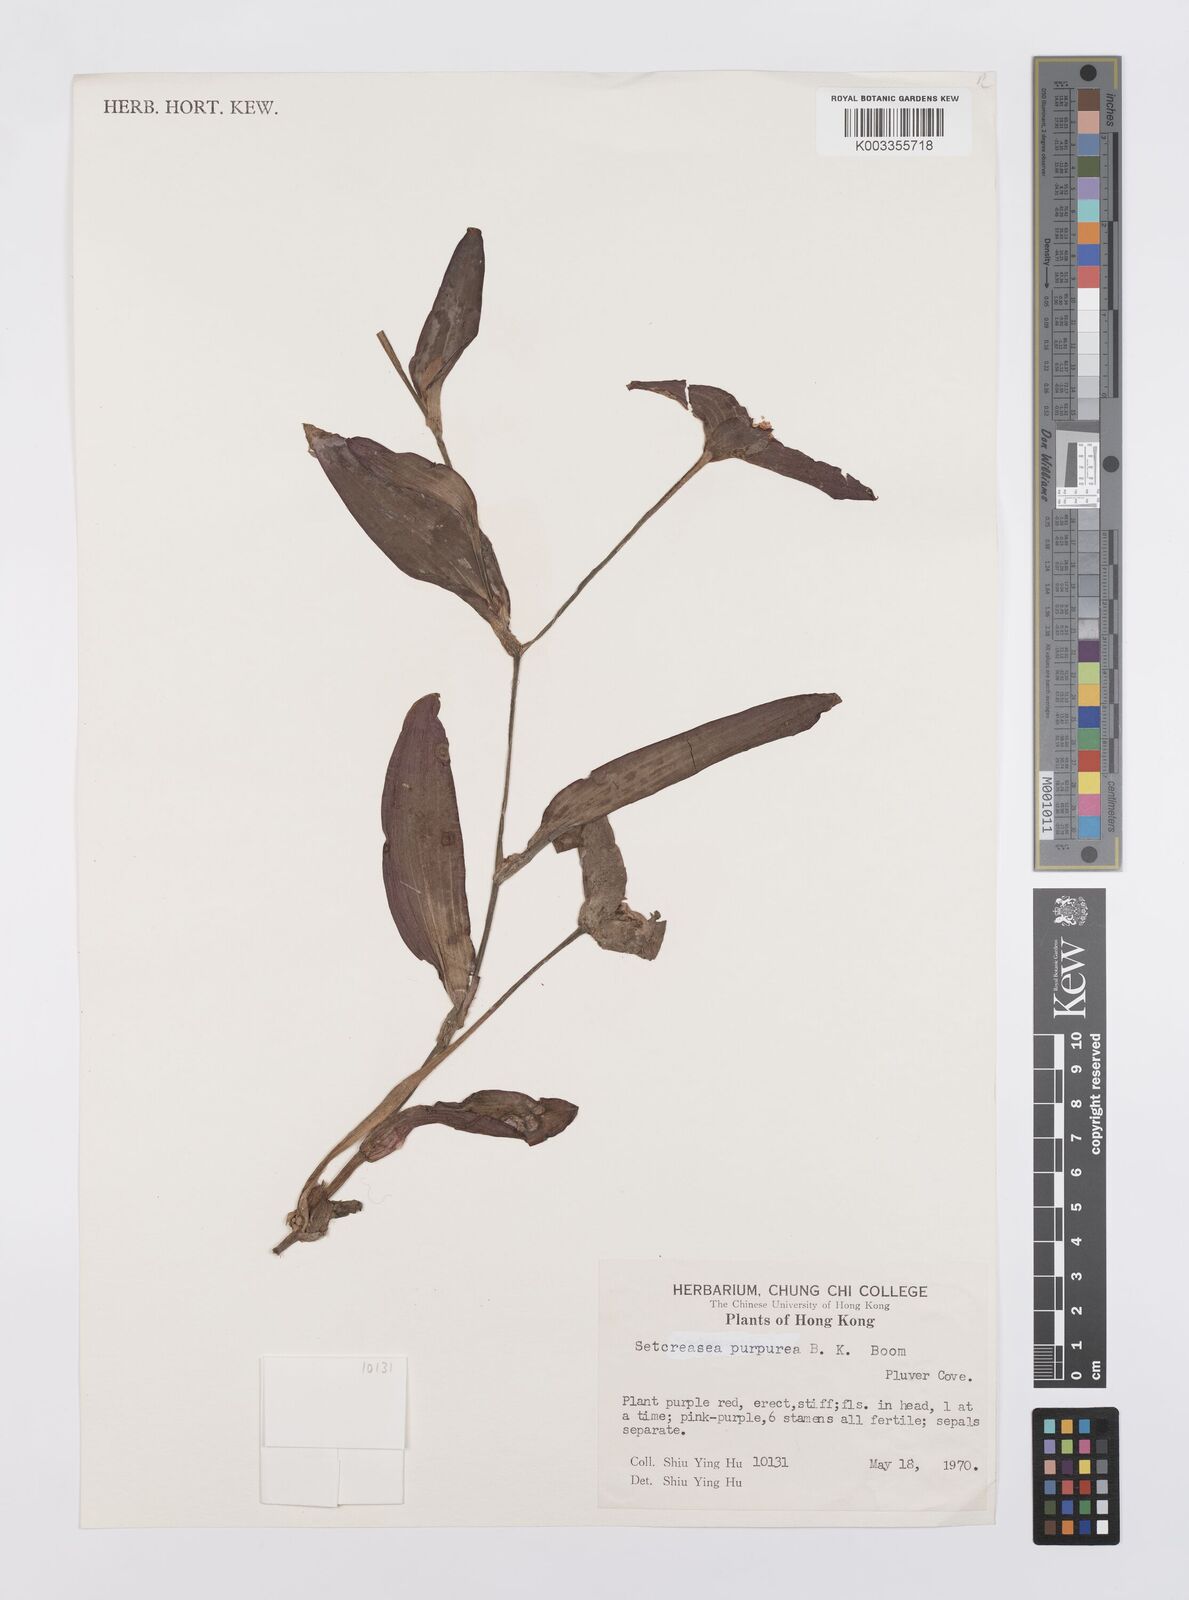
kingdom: Plantae
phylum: Tracheophyta
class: Liliopsida
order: Commelinales
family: Commelinaceae
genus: Callisia
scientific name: Callisia purpurascens
